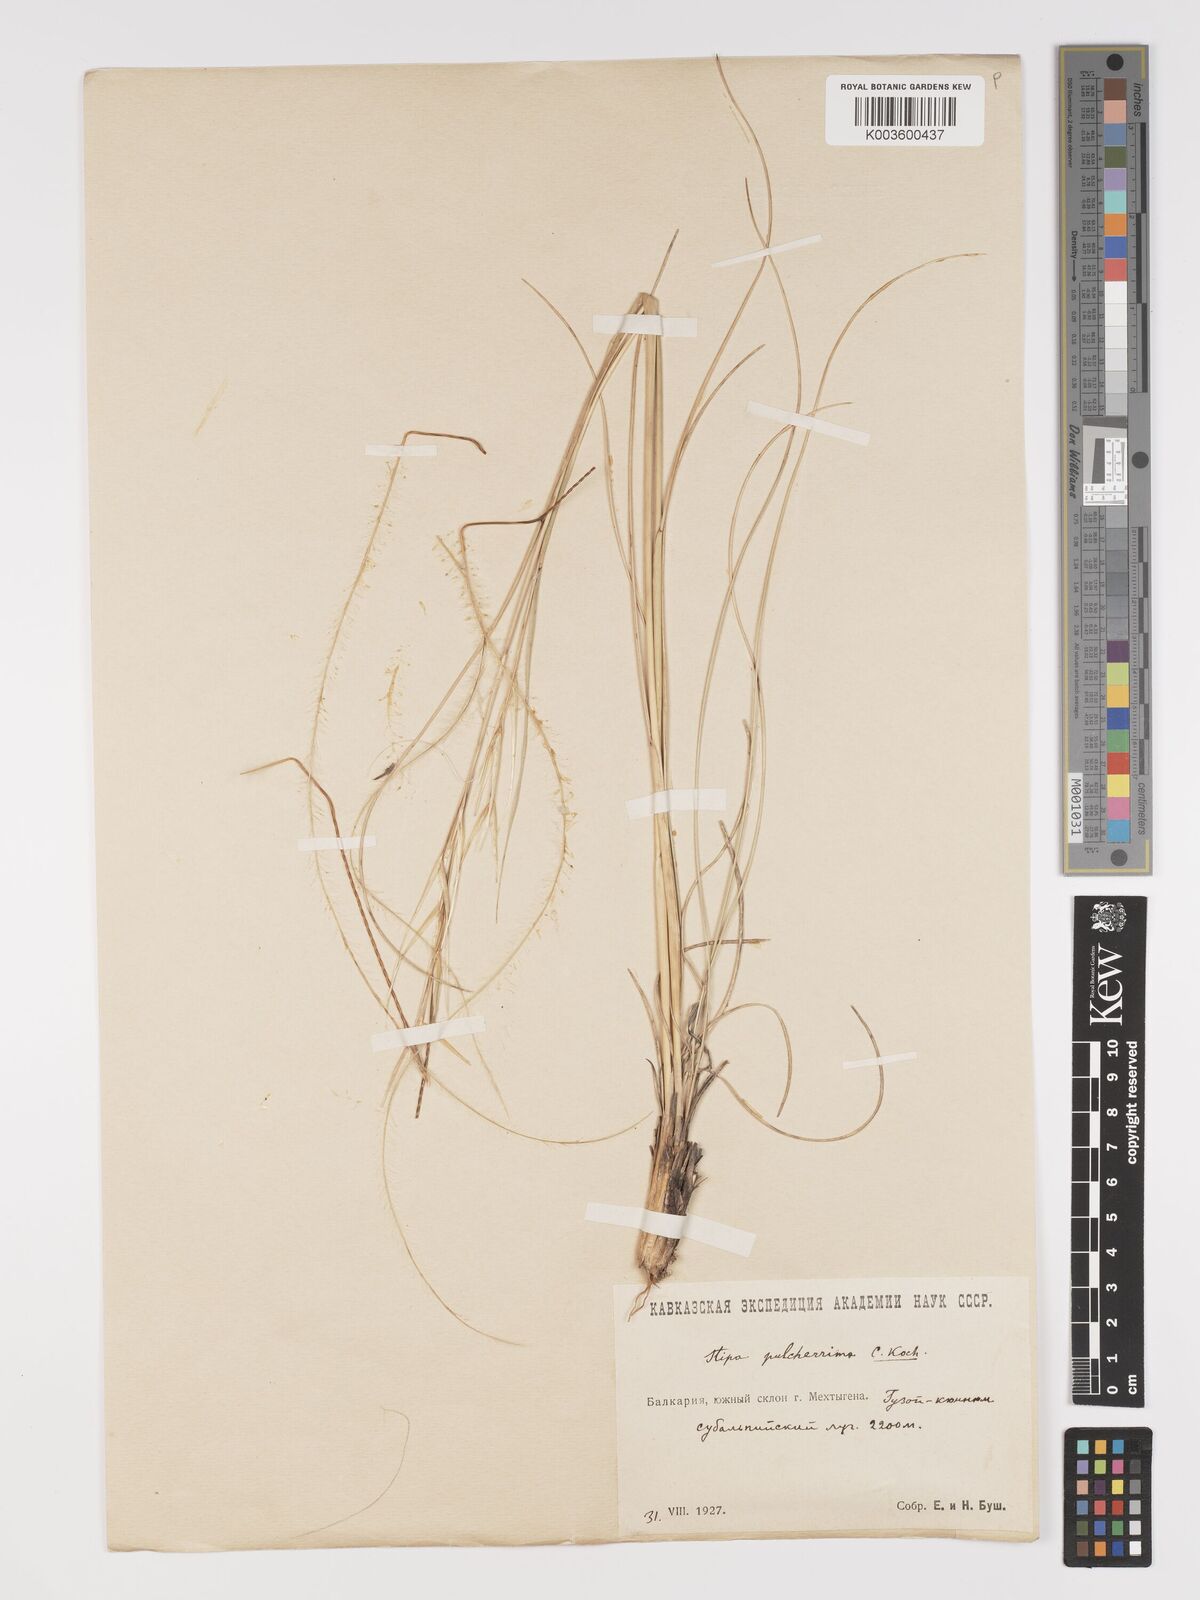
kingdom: Plantae
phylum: Tracheophyta
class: Liliopsida
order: Poales
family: Poaceae
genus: Stipa
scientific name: Stipa pulcherrima
